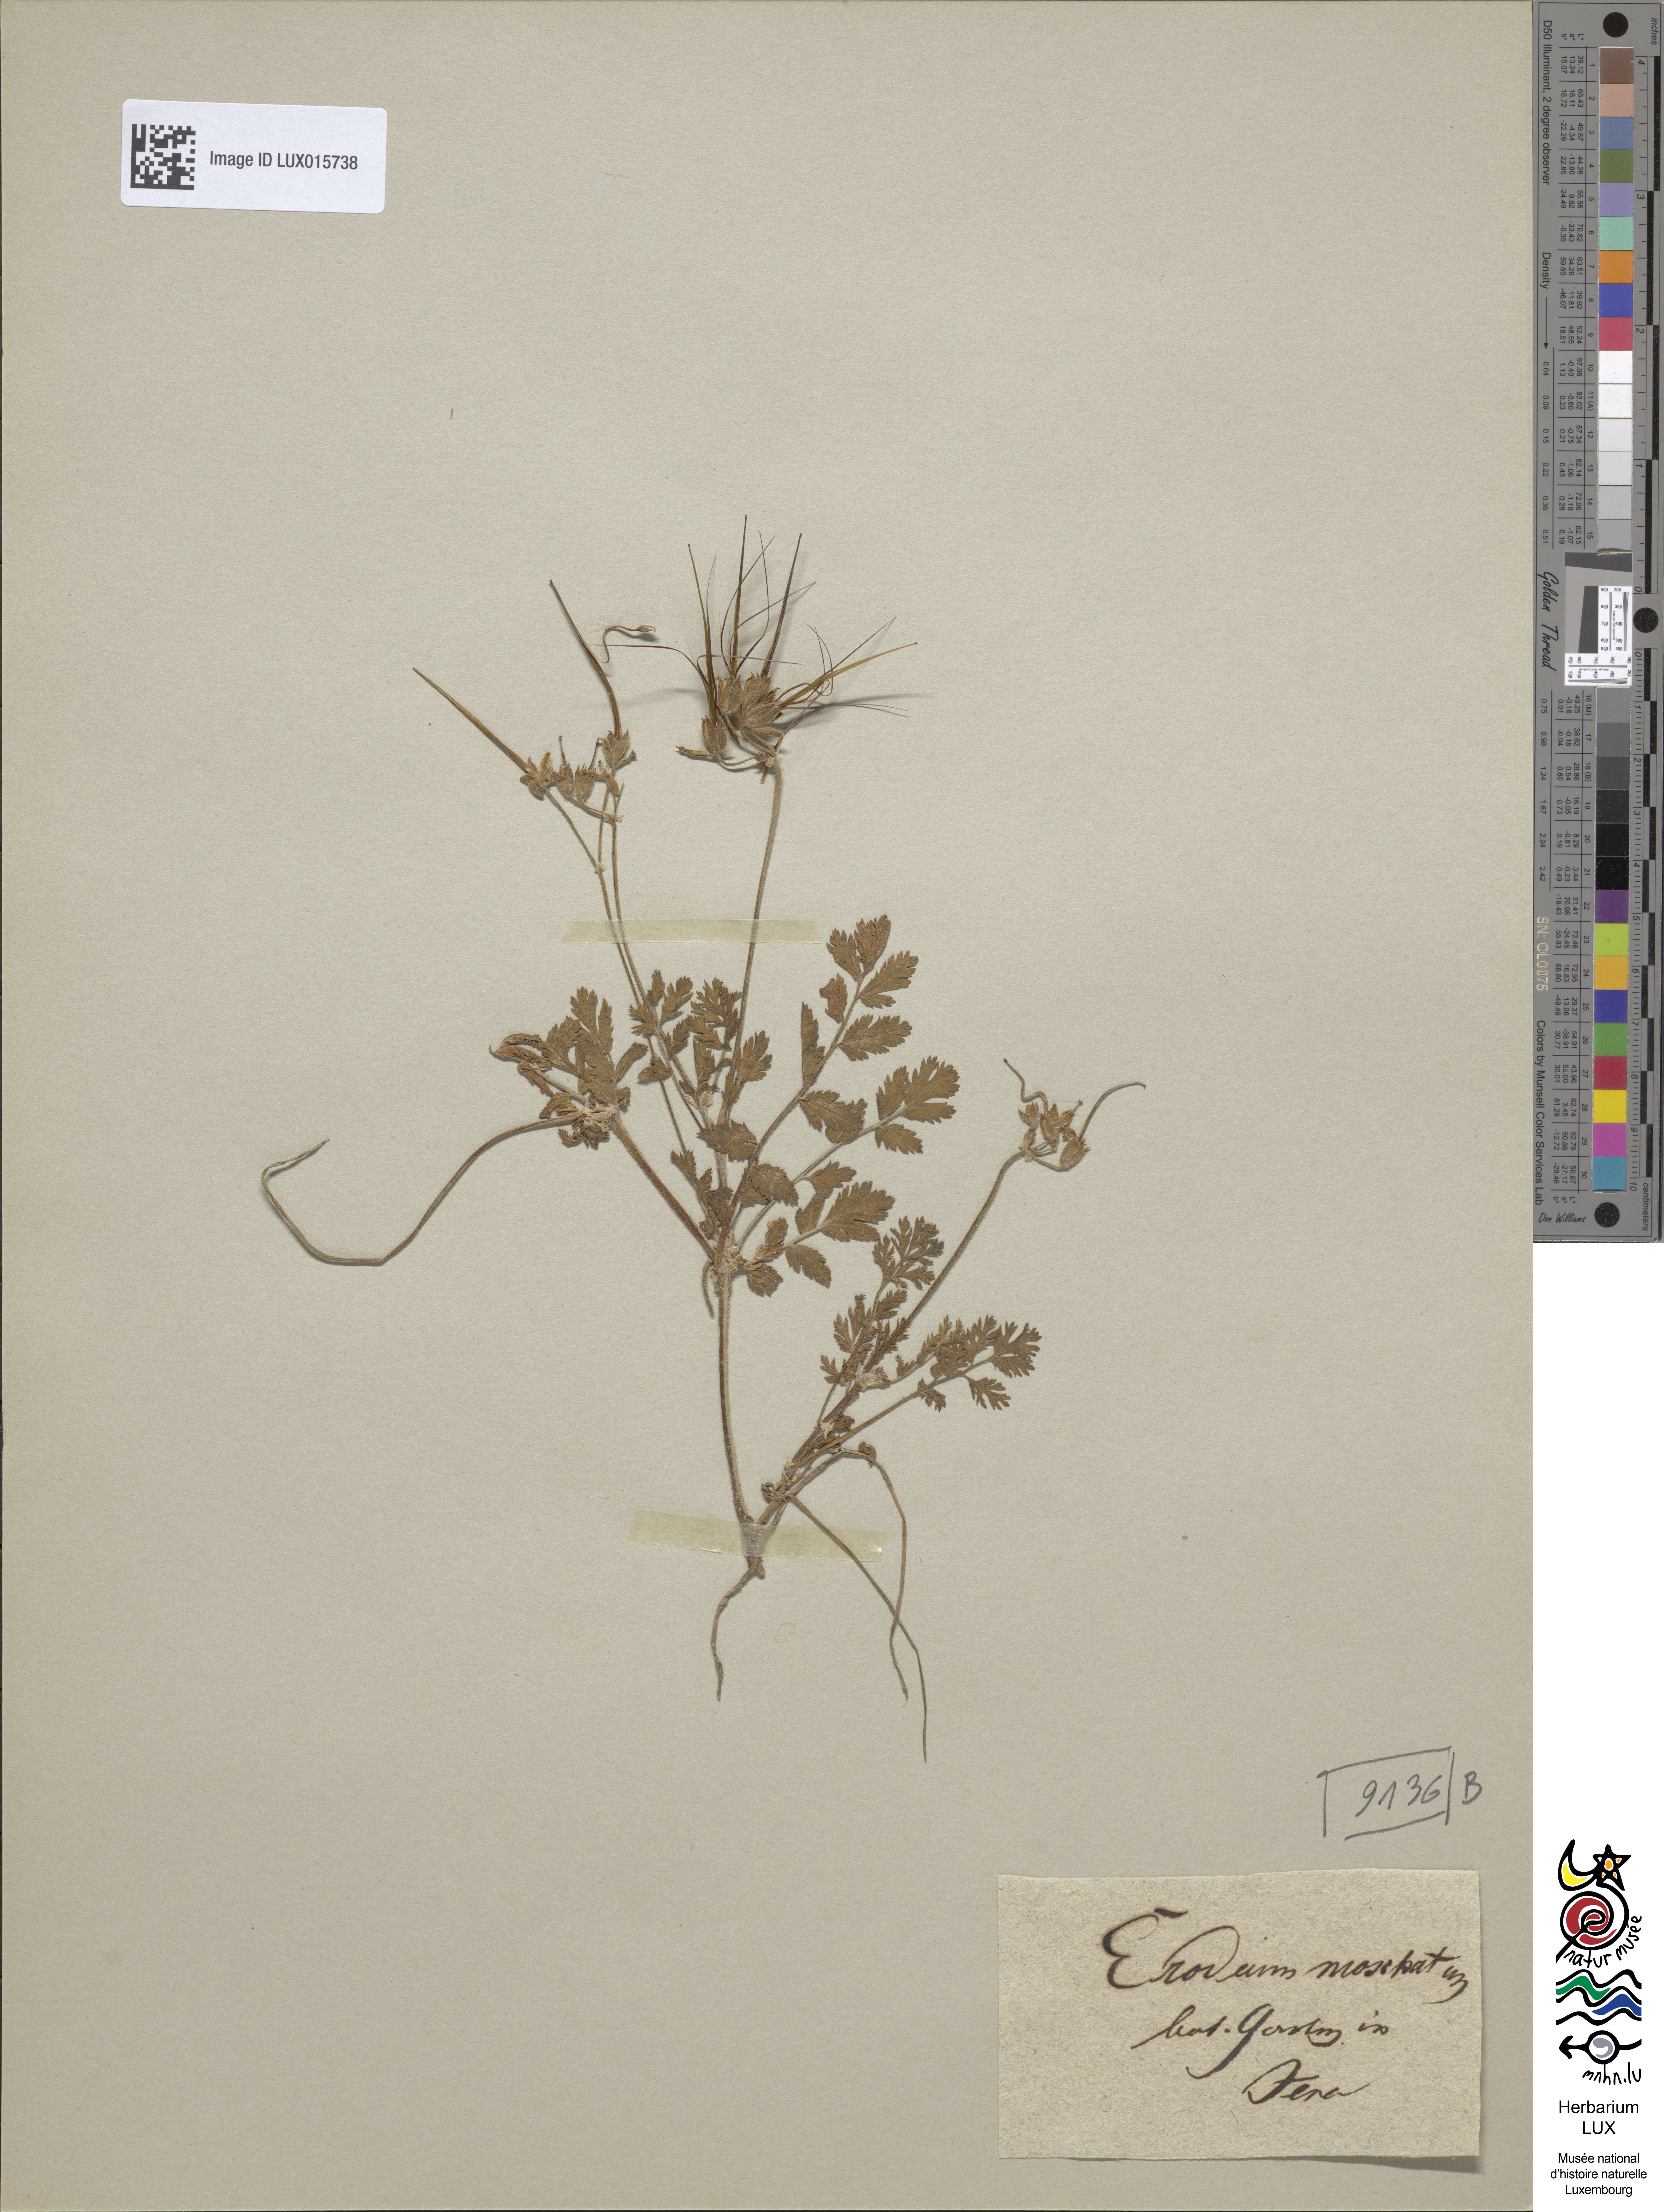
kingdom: Plantae
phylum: Tracheophyta
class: Magnoliopsida
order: Geraniales
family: Geraniaceae
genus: Erodium
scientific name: Erodium moschatum
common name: Musk stork's-bill
